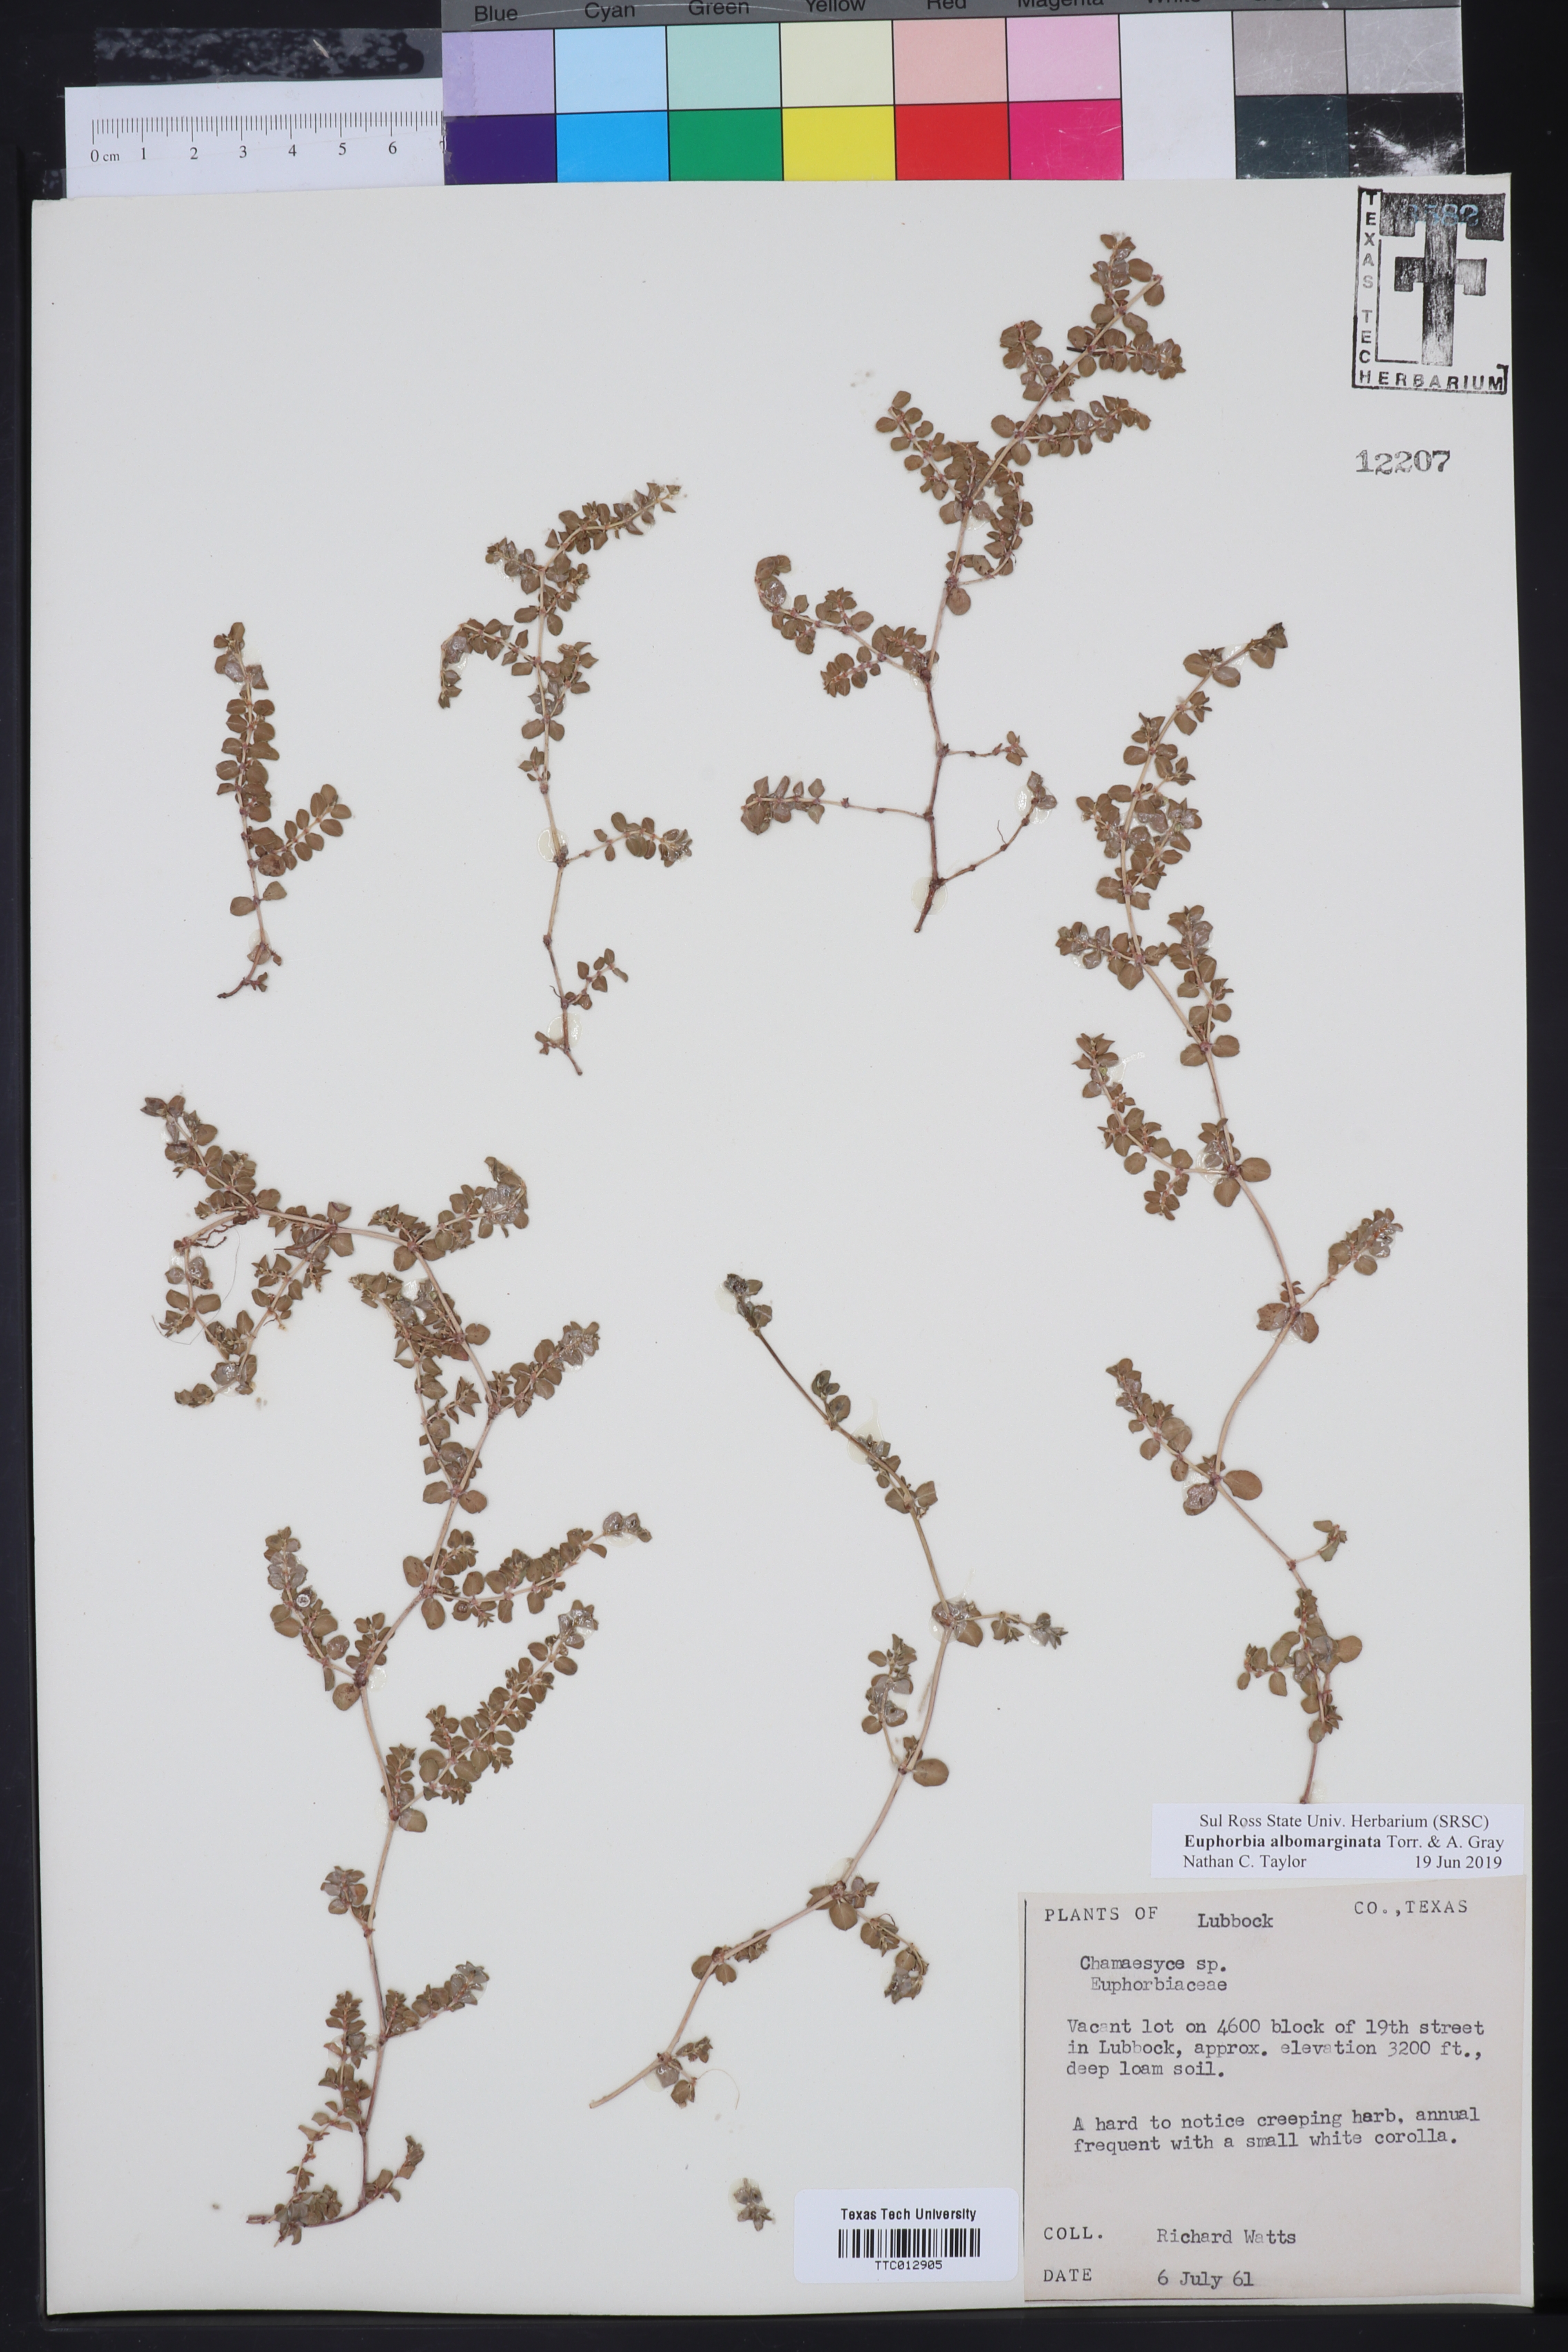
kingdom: Plantae
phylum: Tracheophyta
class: Magnoliopsida
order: Malpighiales
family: Euphorbiaceae
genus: Euphorbia
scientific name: Euphorbia
